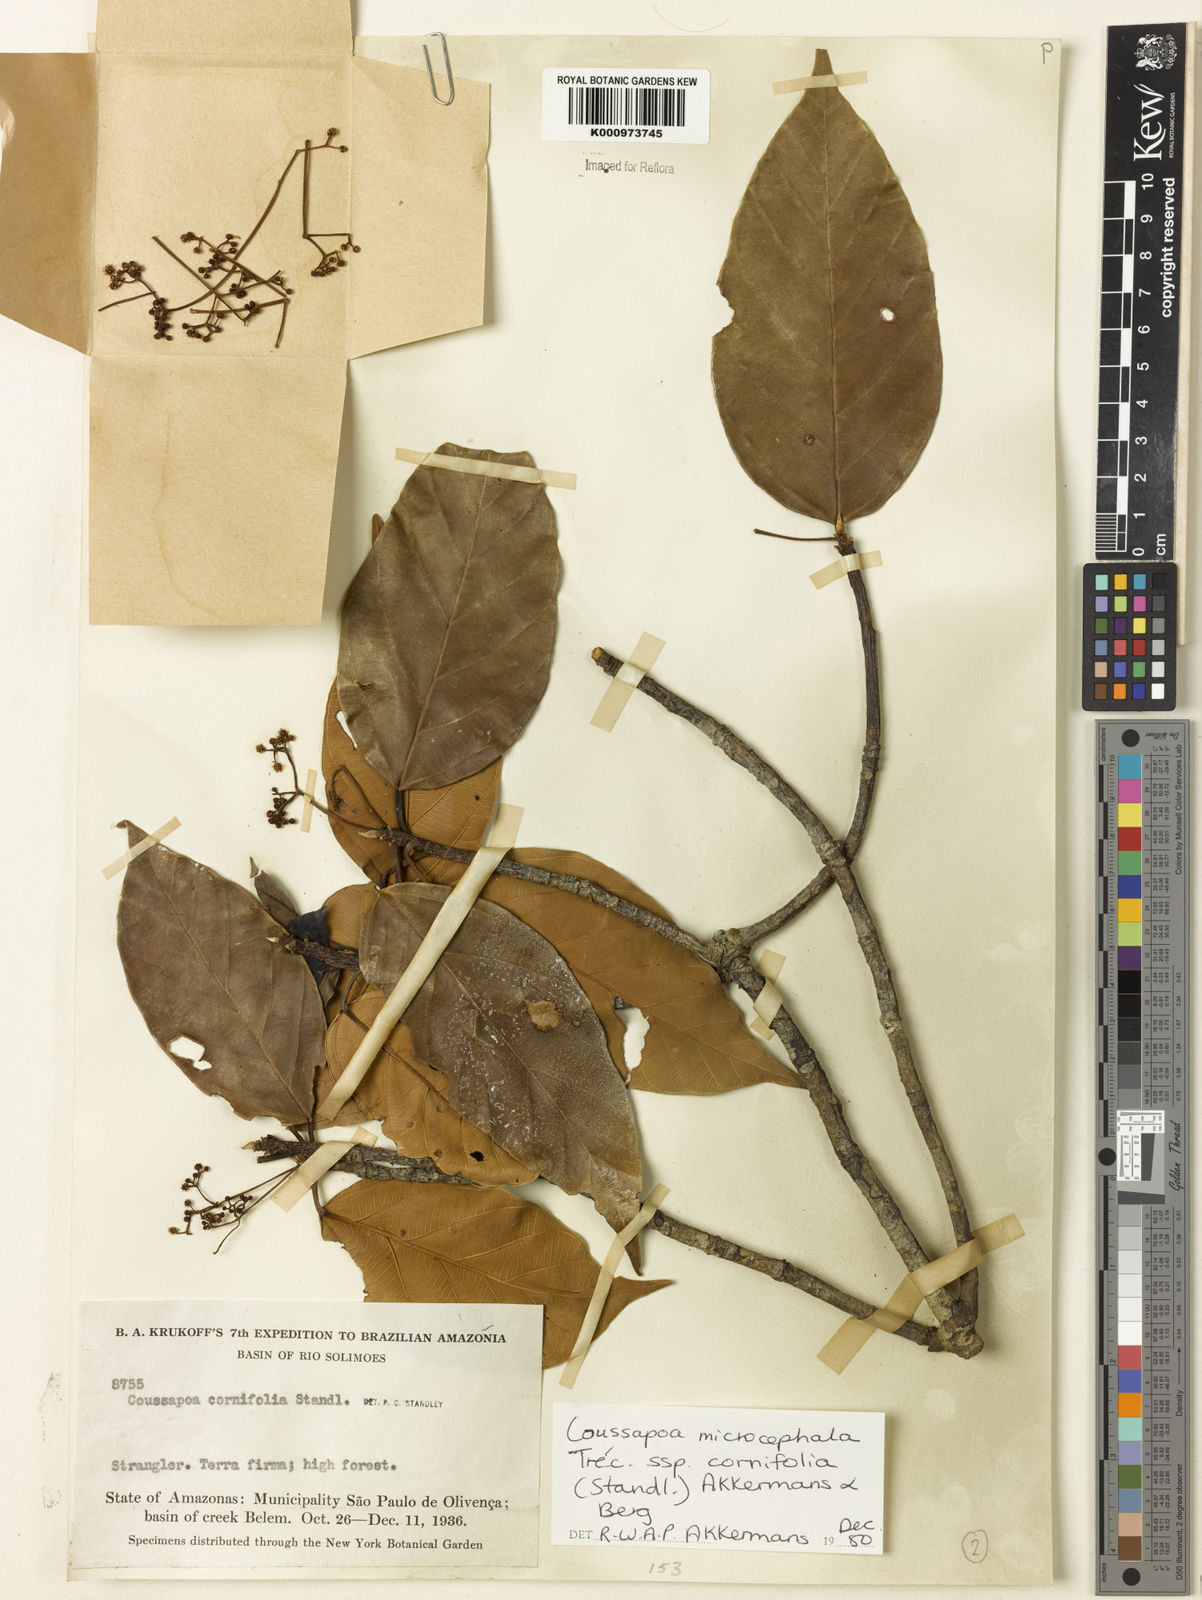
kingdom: Plantae
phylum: Tracheophyta
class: Magnoliopsida
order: Rosales
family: Urticaceae
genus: Coussapoa
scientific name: Coussapoa
